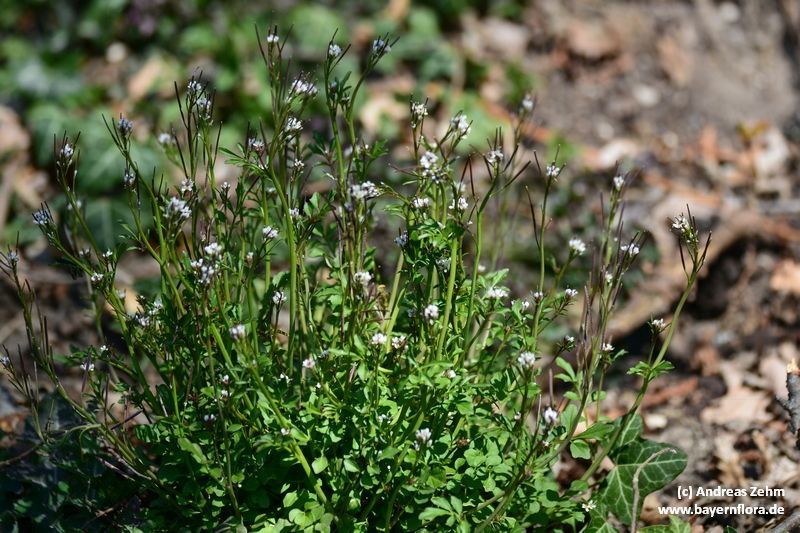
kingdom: Plantae
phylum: Tracheophyta
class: Magnoliopsida
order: Brassicales
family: Brassicaceae
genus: Cardamine
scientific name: Cardamine hirsuta
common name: Hairy bittercress
